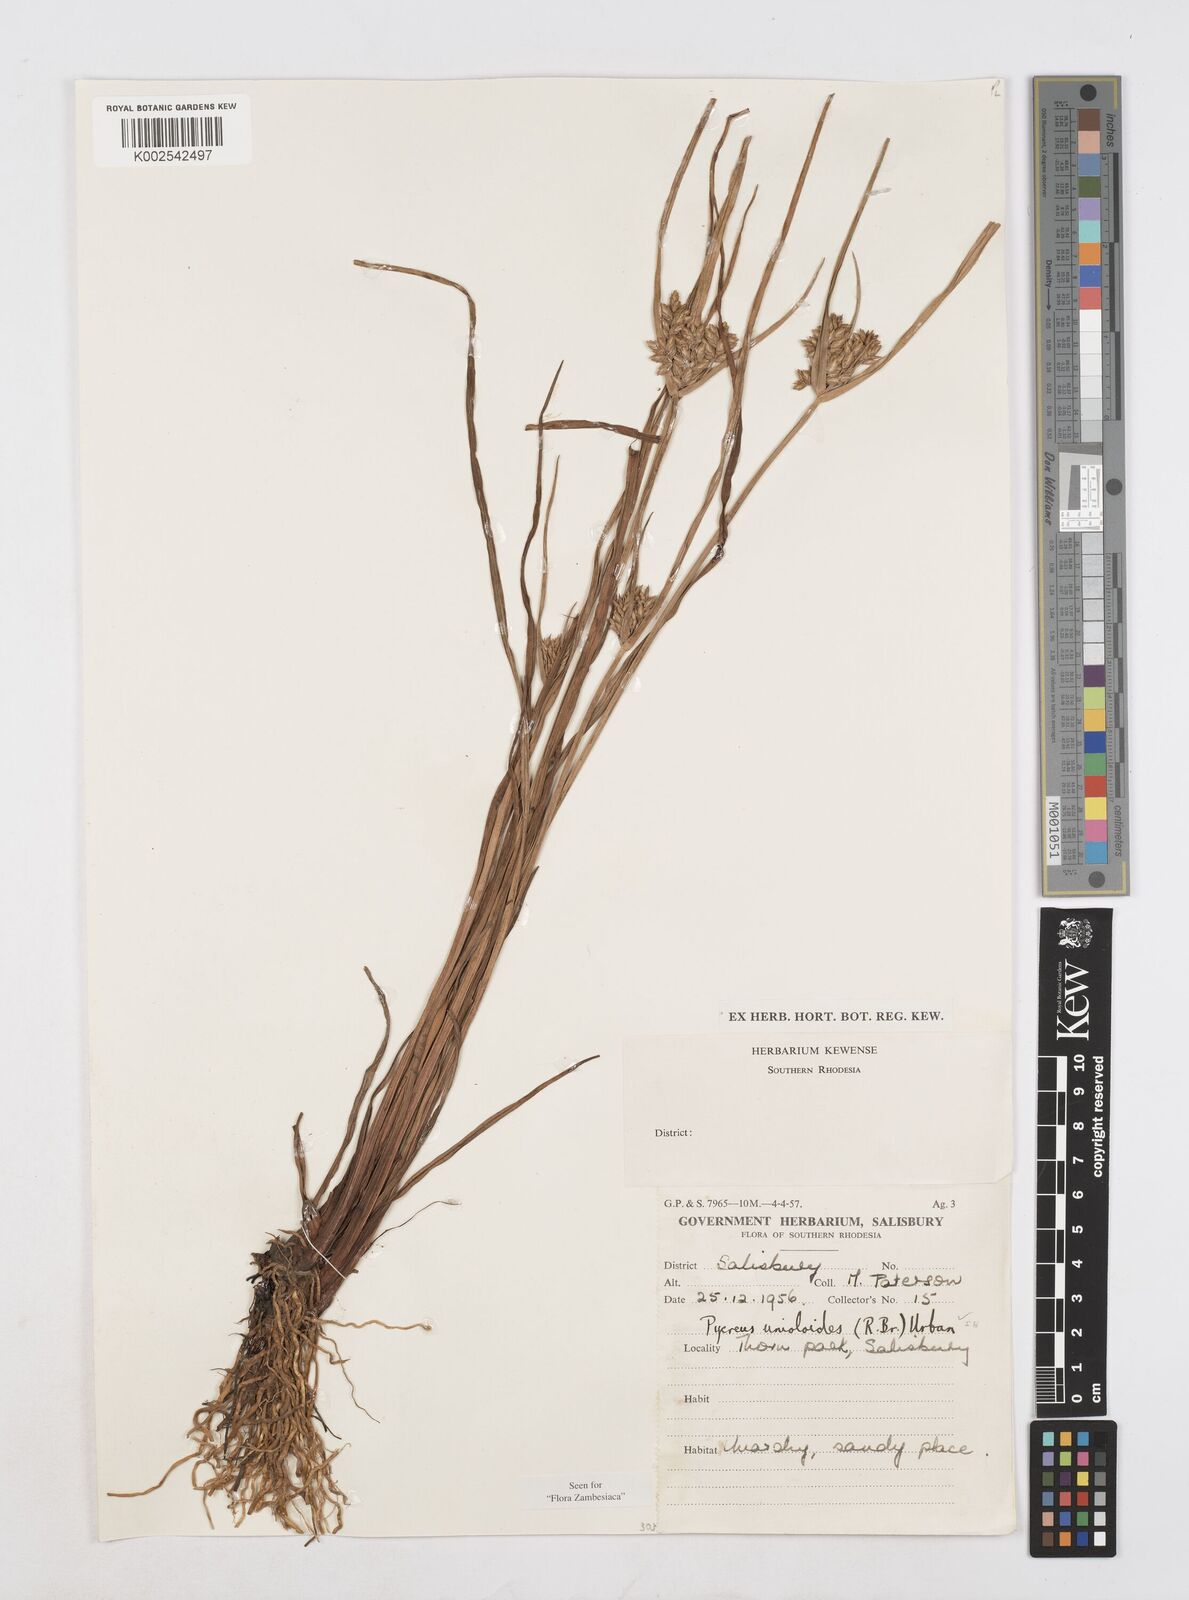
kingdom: Plantae
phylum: Tracheophyta
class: Liliopsida
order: Poales
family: Cyperaceae
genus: Cyperus
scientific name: Cyperus unioloides
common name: Uniola flatsedge
